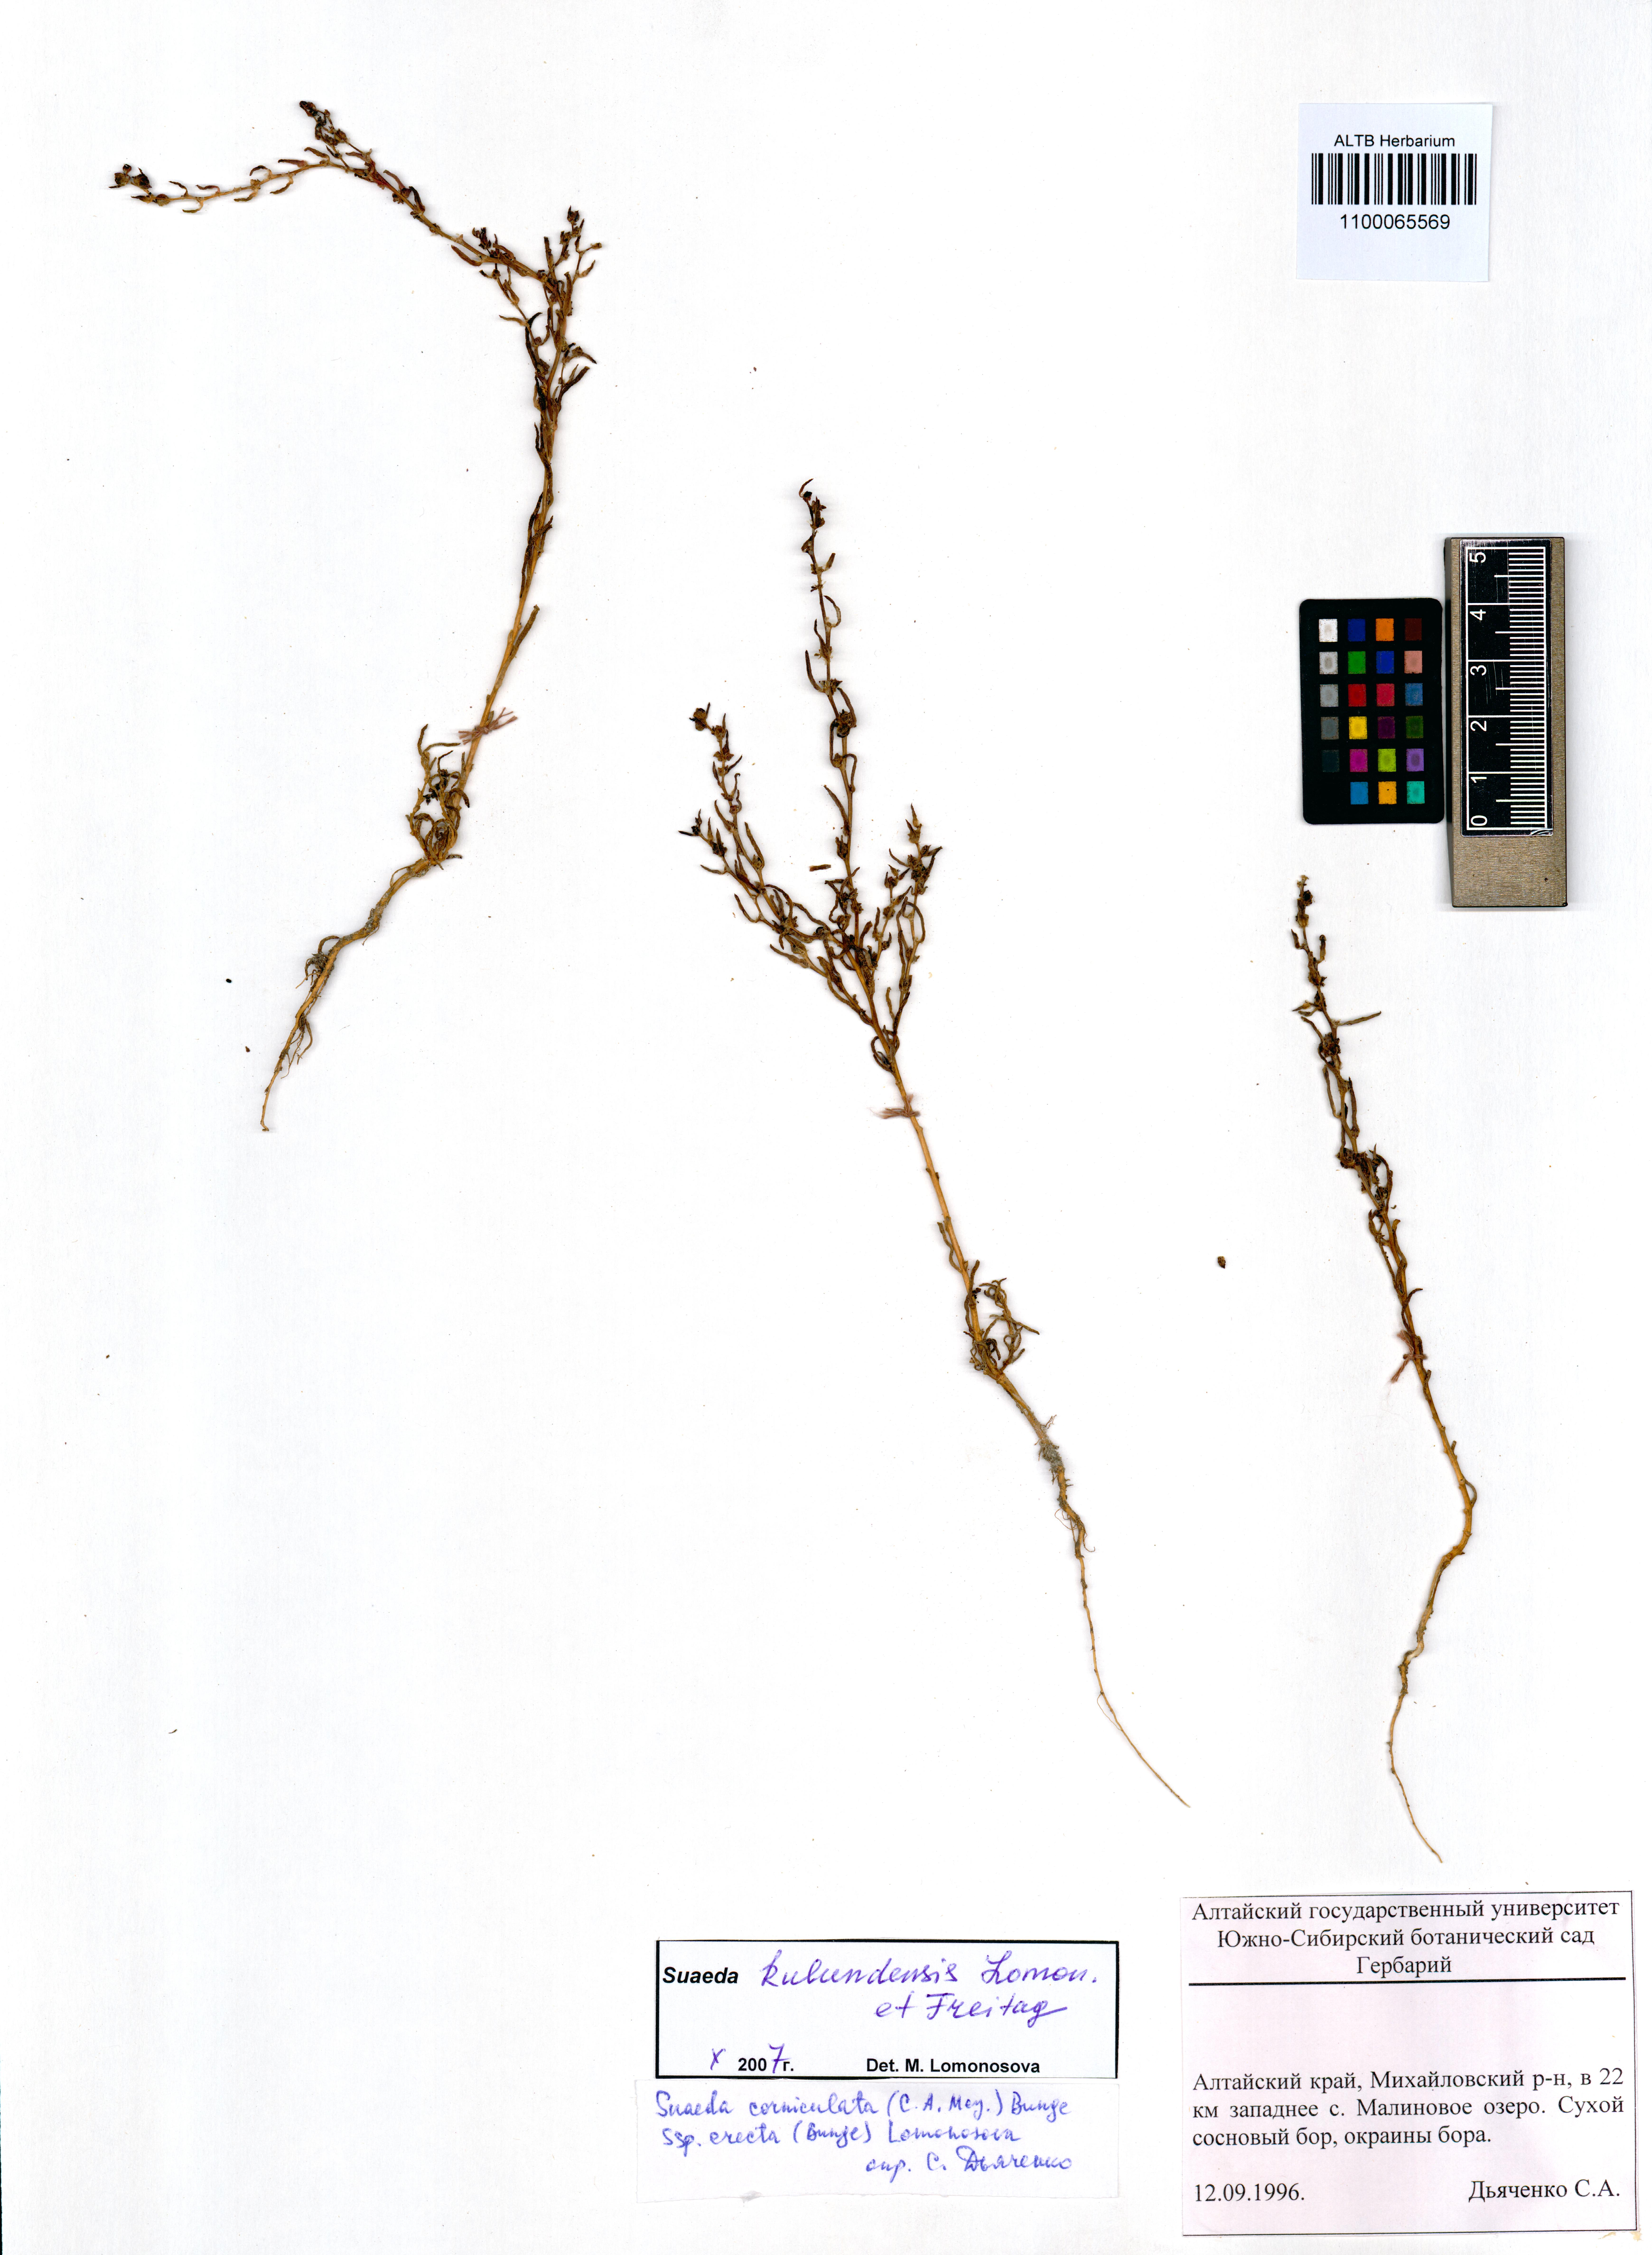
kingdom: Plantae
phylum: Tracheophyta
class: Magnoliopsida
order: Caryophyllales
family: Amaranthaceae
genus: Suaeda
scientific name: Suaeda kulundensis
